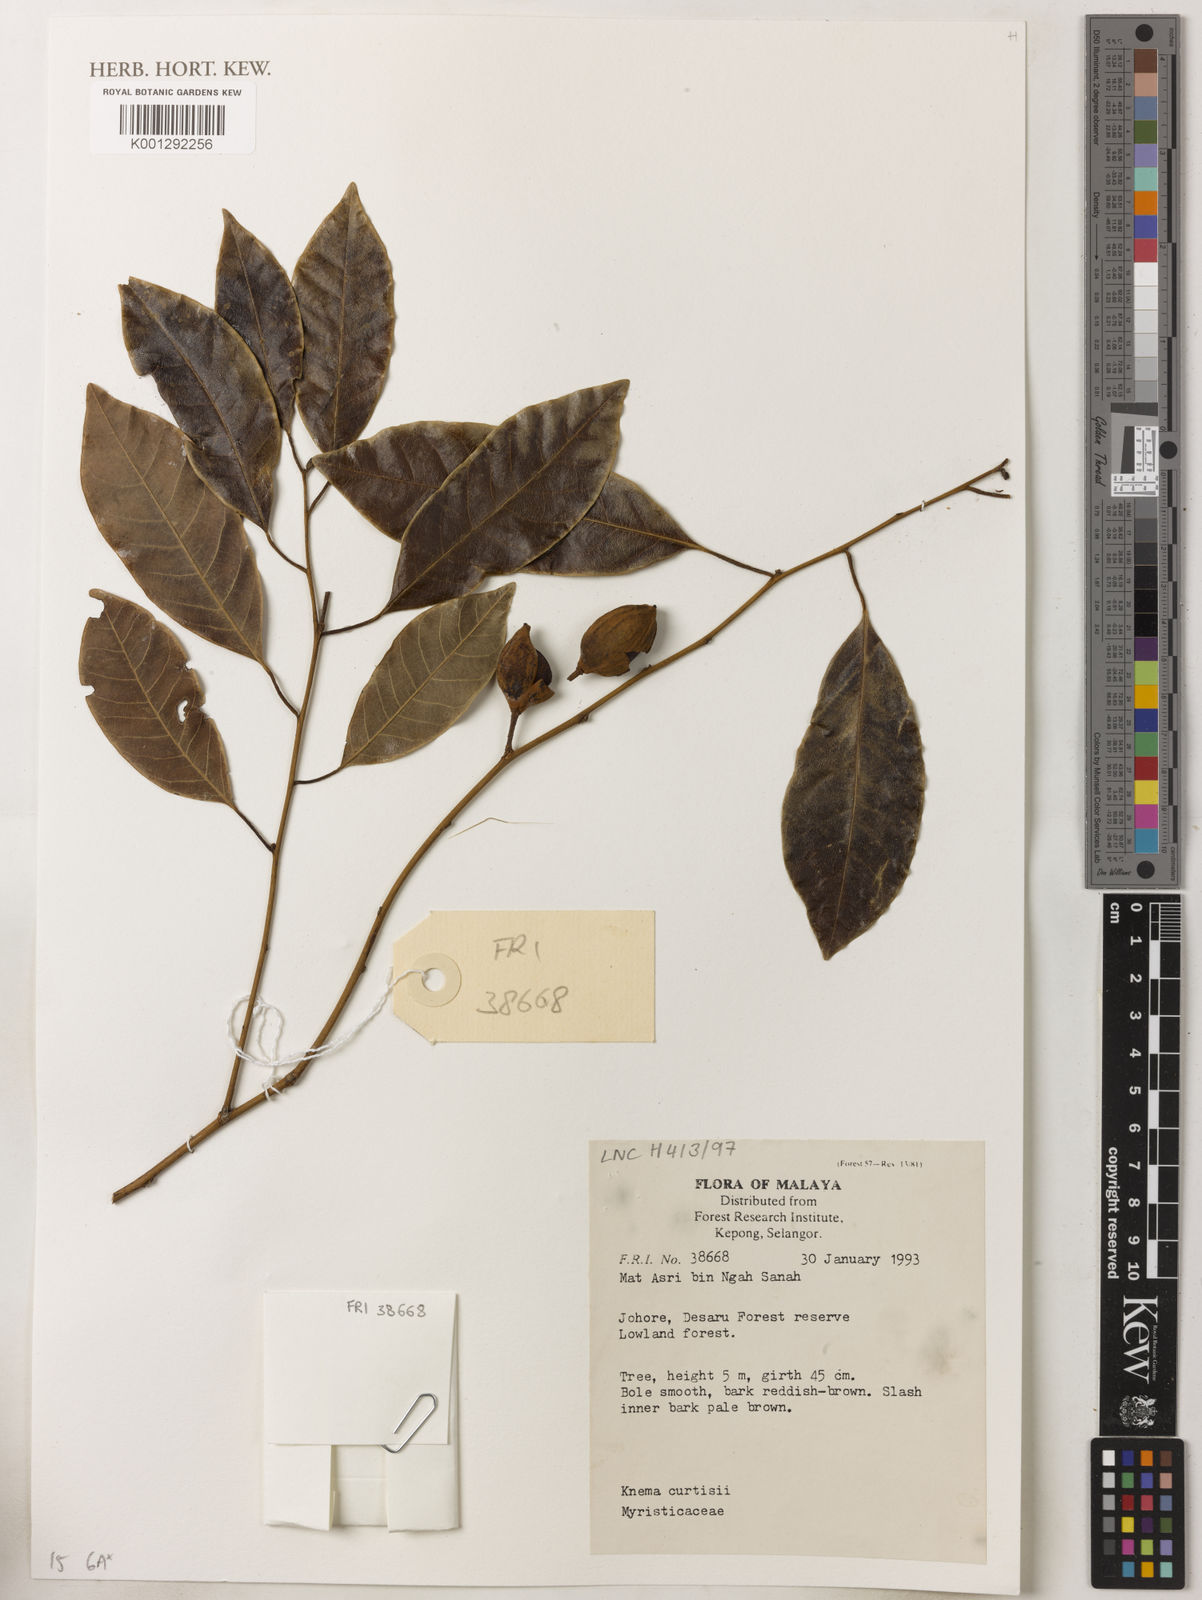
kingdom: Plantae
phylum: Tracheophyta
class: Magnoliopsida
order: Magnoliales
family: Myristicaceae
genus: Knema
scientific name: Knema
